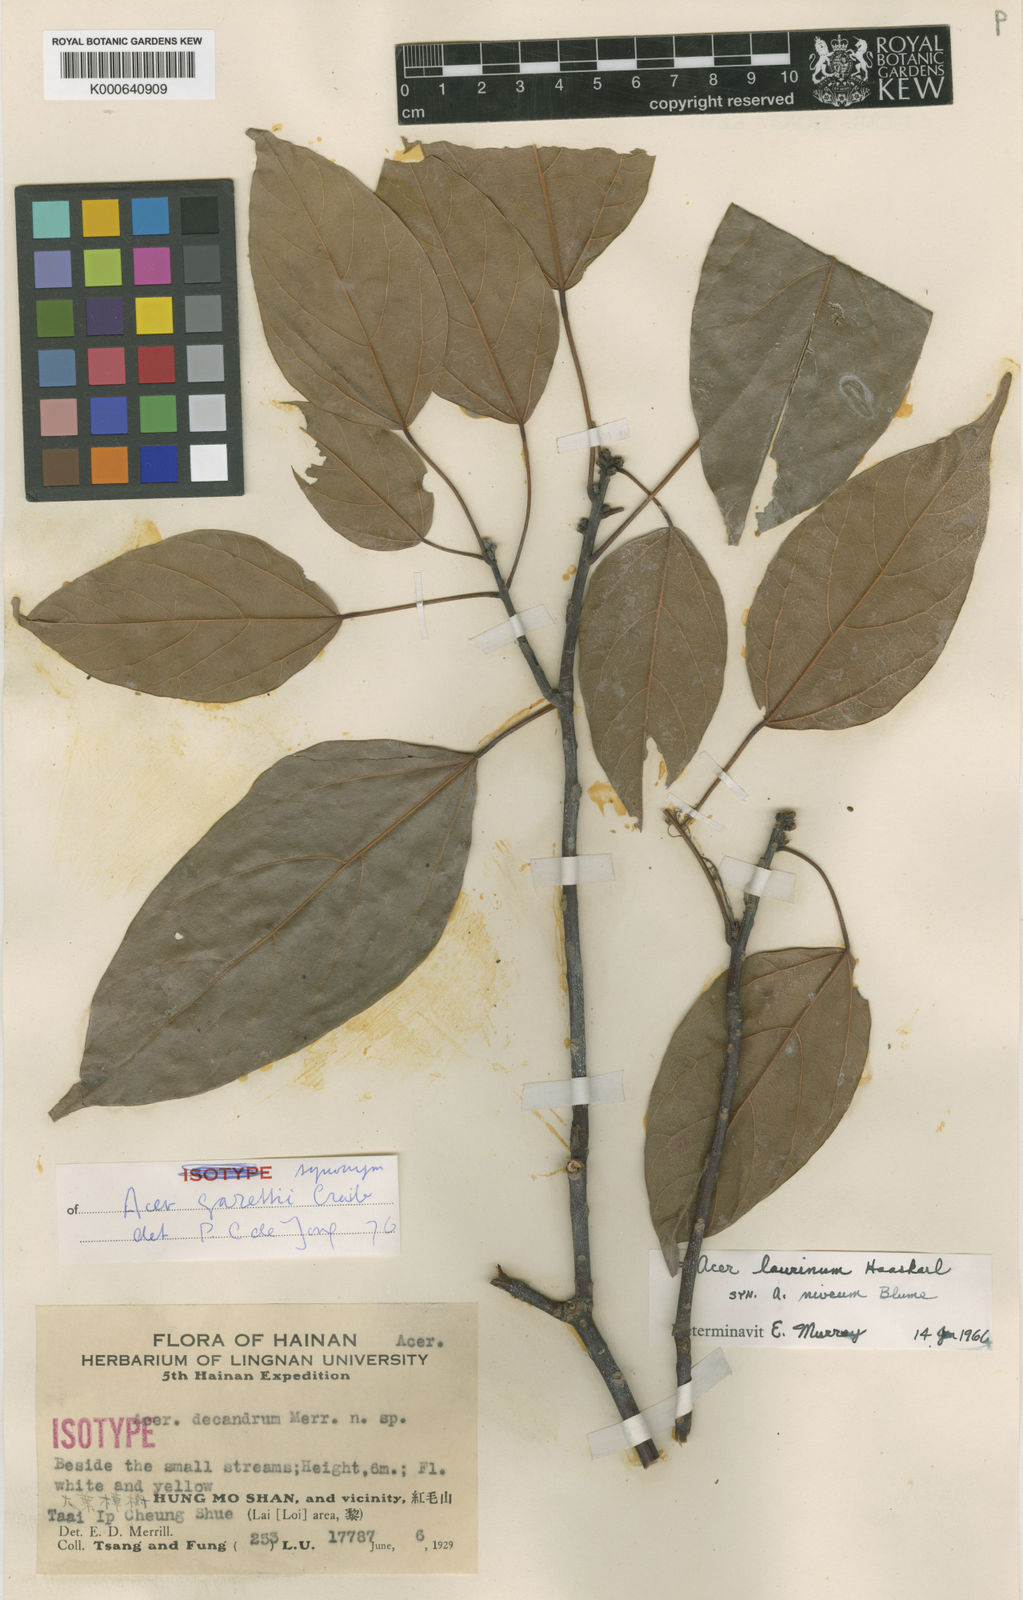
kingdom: Plantae
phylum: Tracheophyta
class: Magnoliopsida
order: Sapindales
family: Sapindaceae
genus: Acer
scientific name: Acer laurinum
